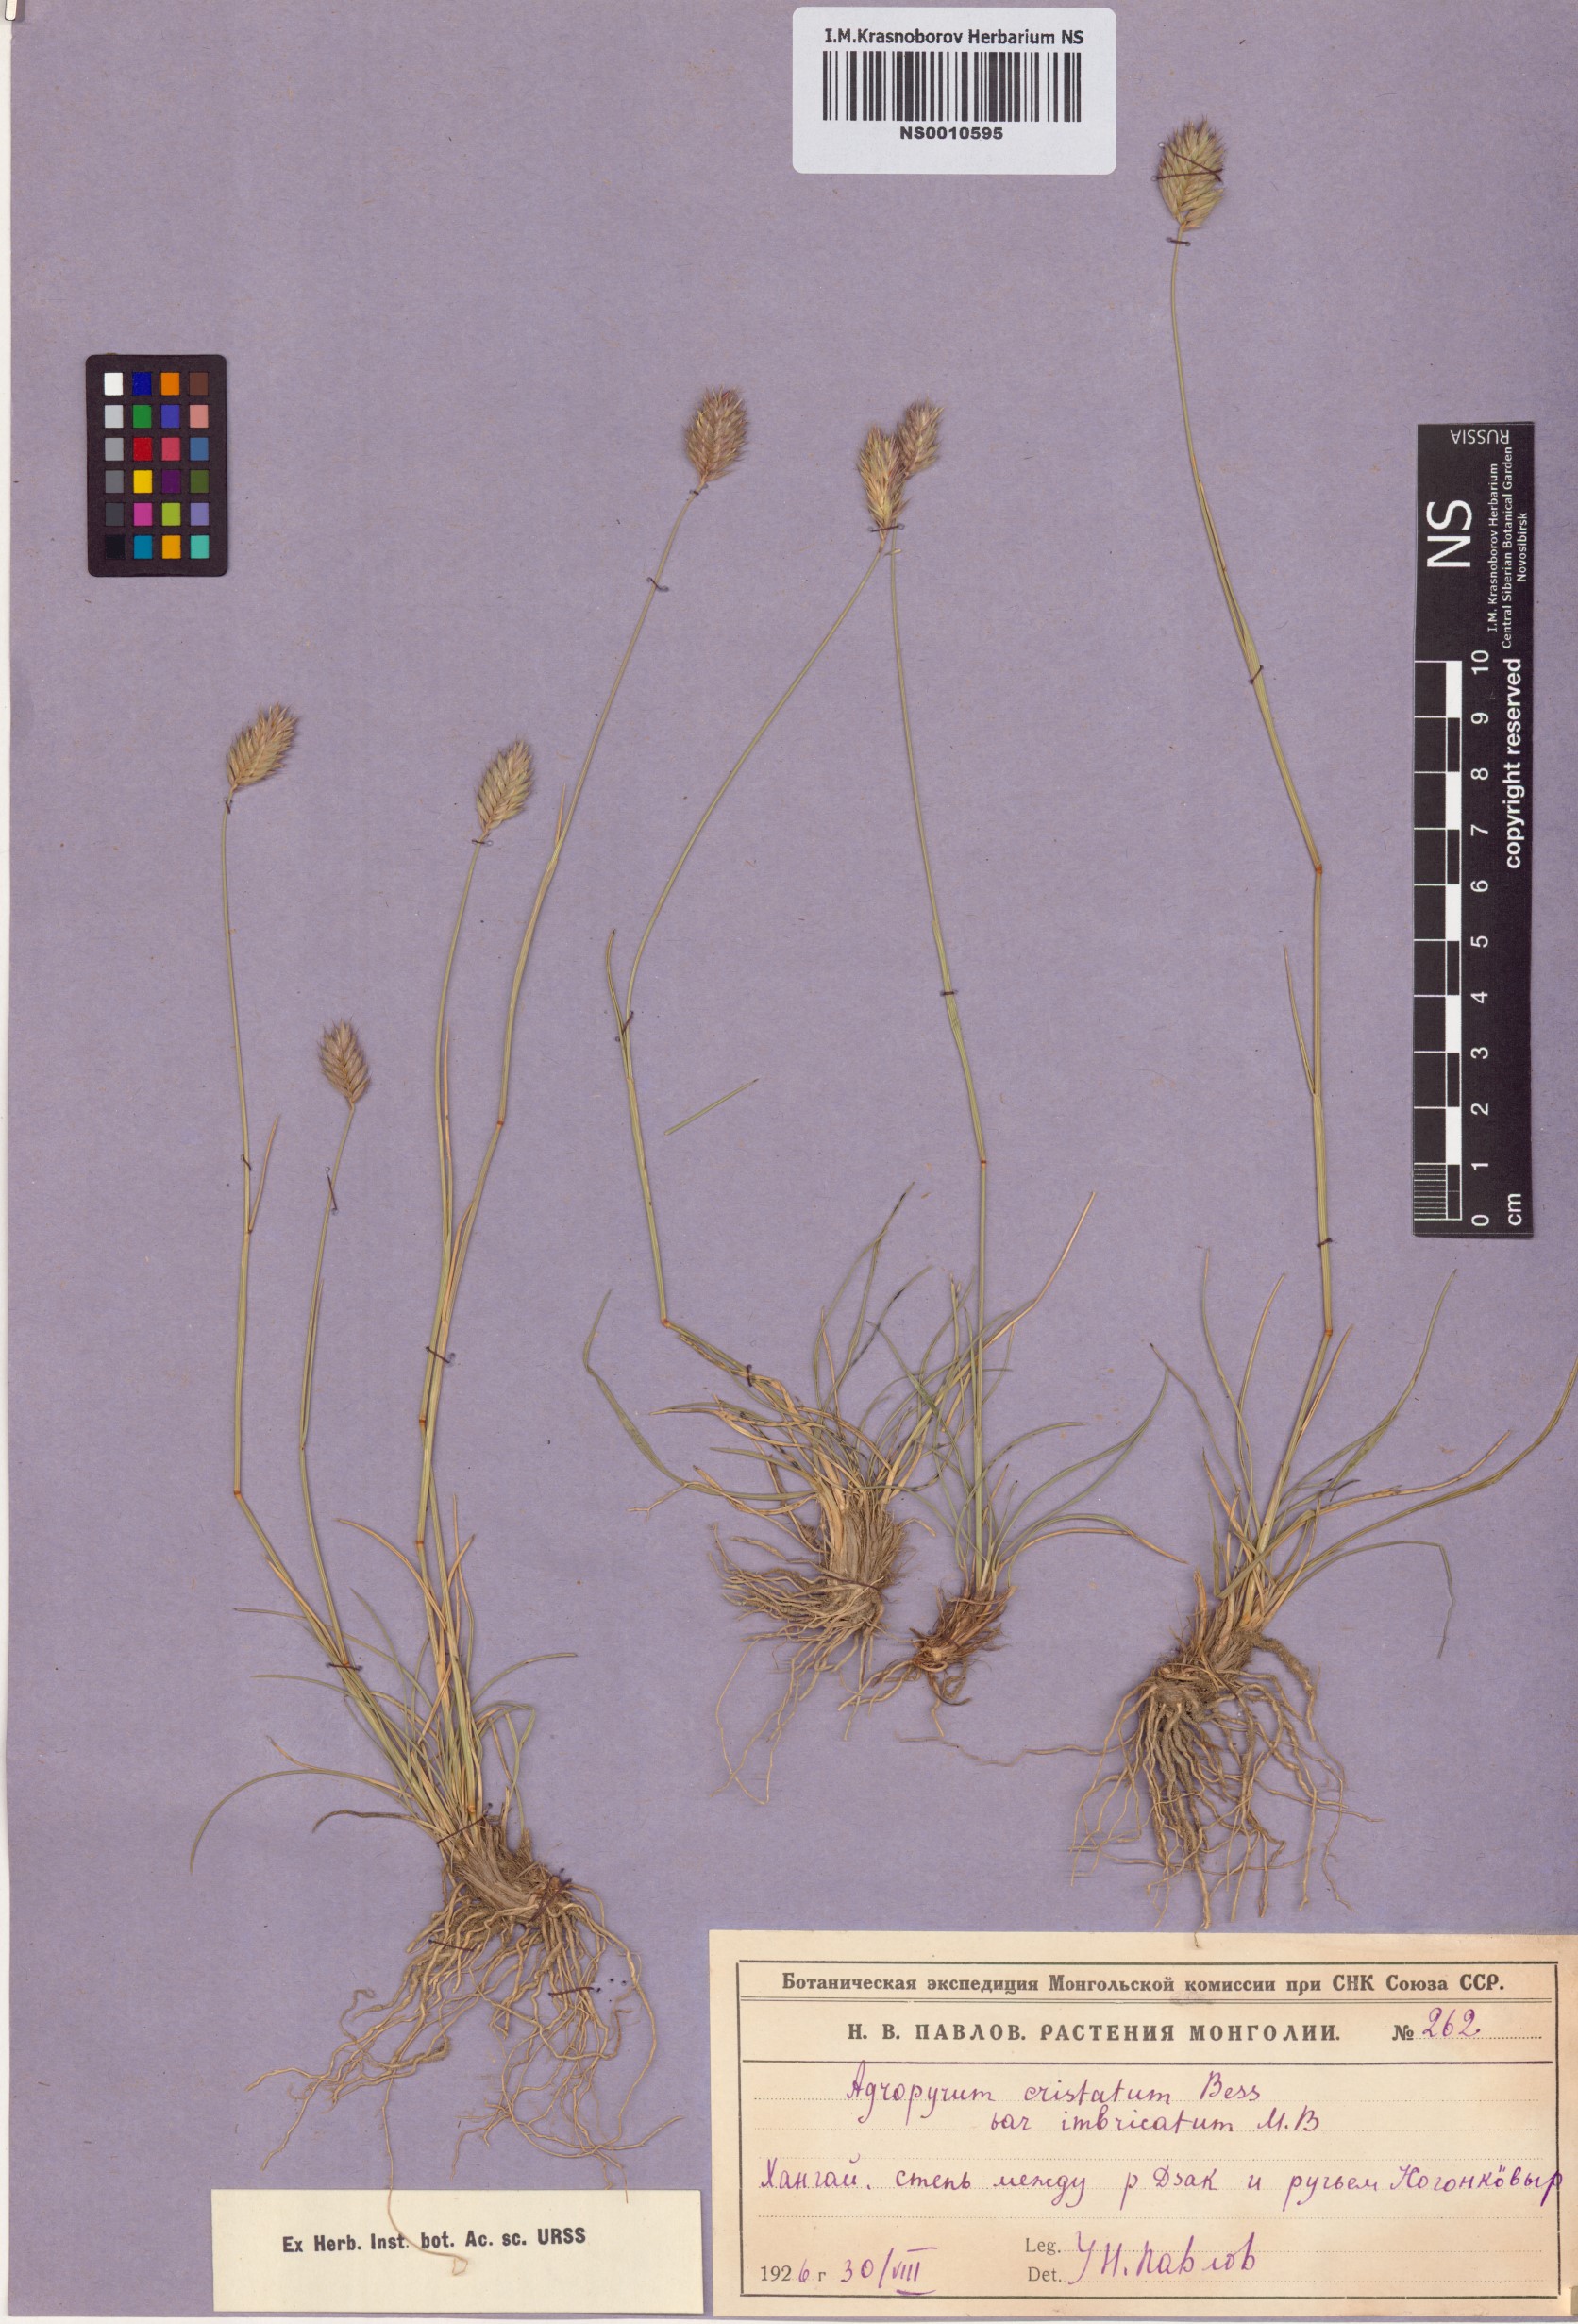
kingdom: Plantae
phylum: Tracheophyta
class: Liliopsida
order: Poales
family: Poaceae
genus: Agropyron
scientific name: Agropyron cristatum
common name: Crested wheatgrass
